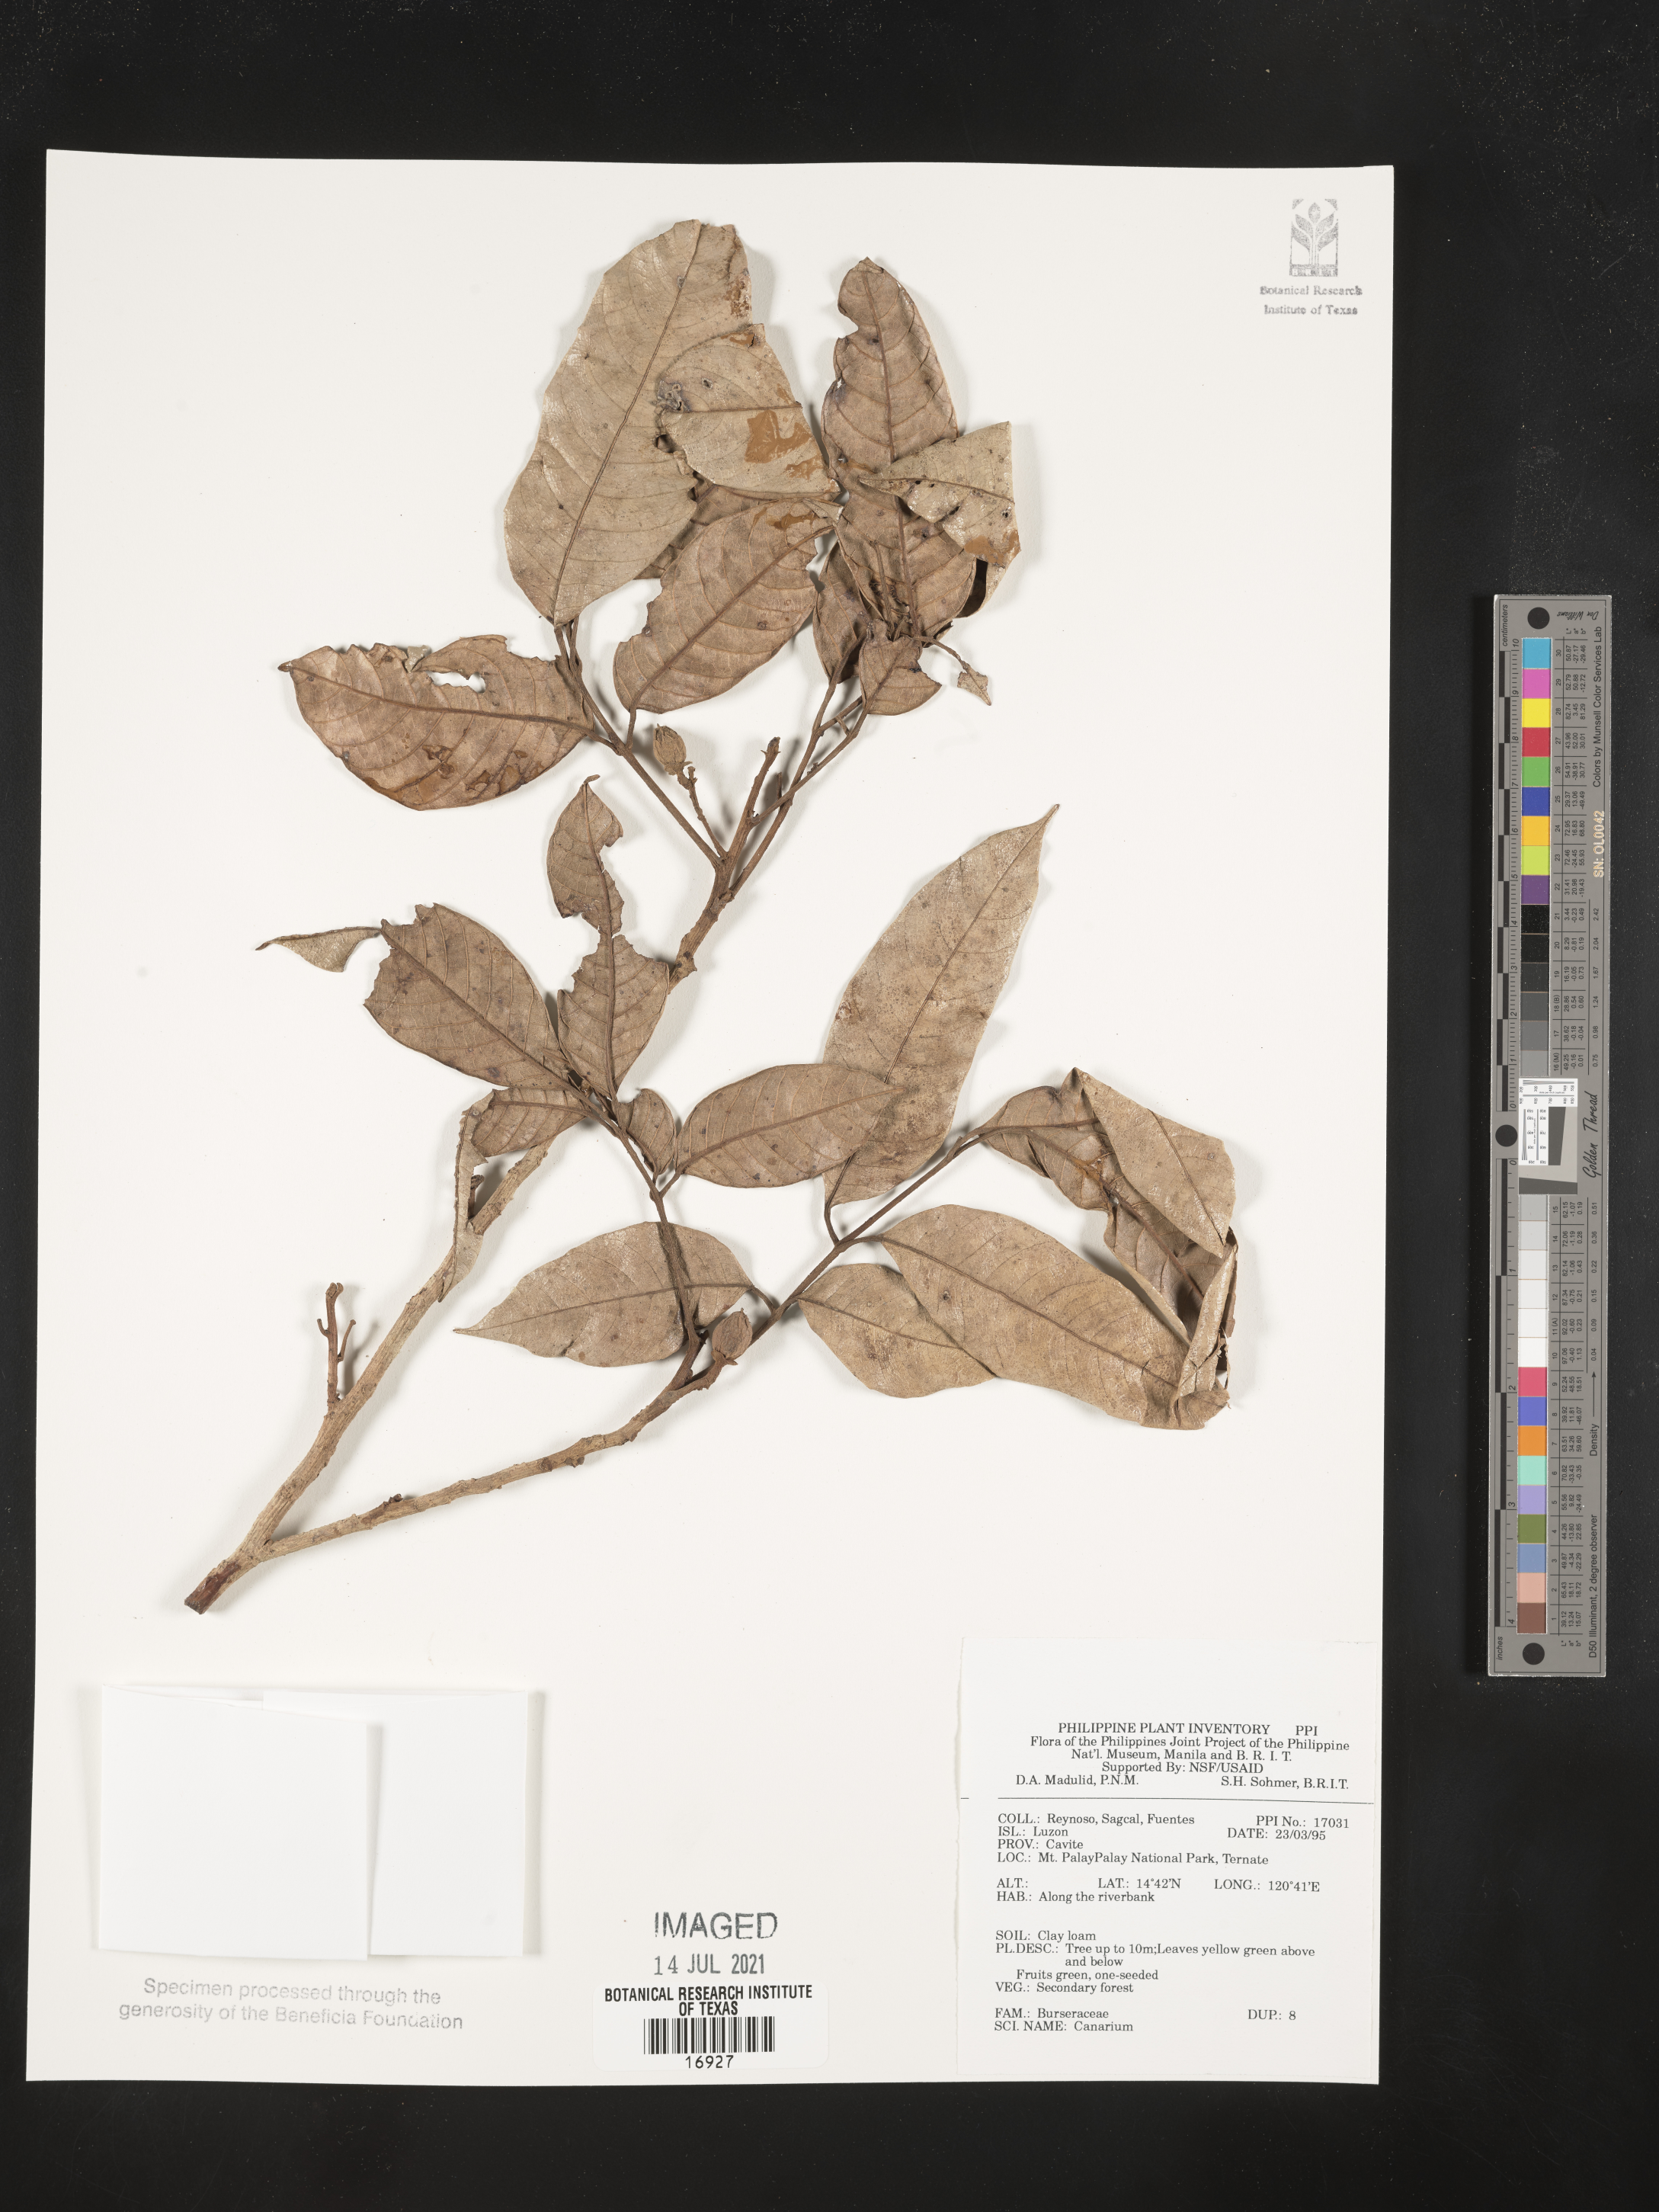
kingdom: Plantae
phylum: Tracheophyta
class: Magnoliopsida
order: Sapindales
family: Burseraceae
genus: Canarium
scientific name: Canarium
